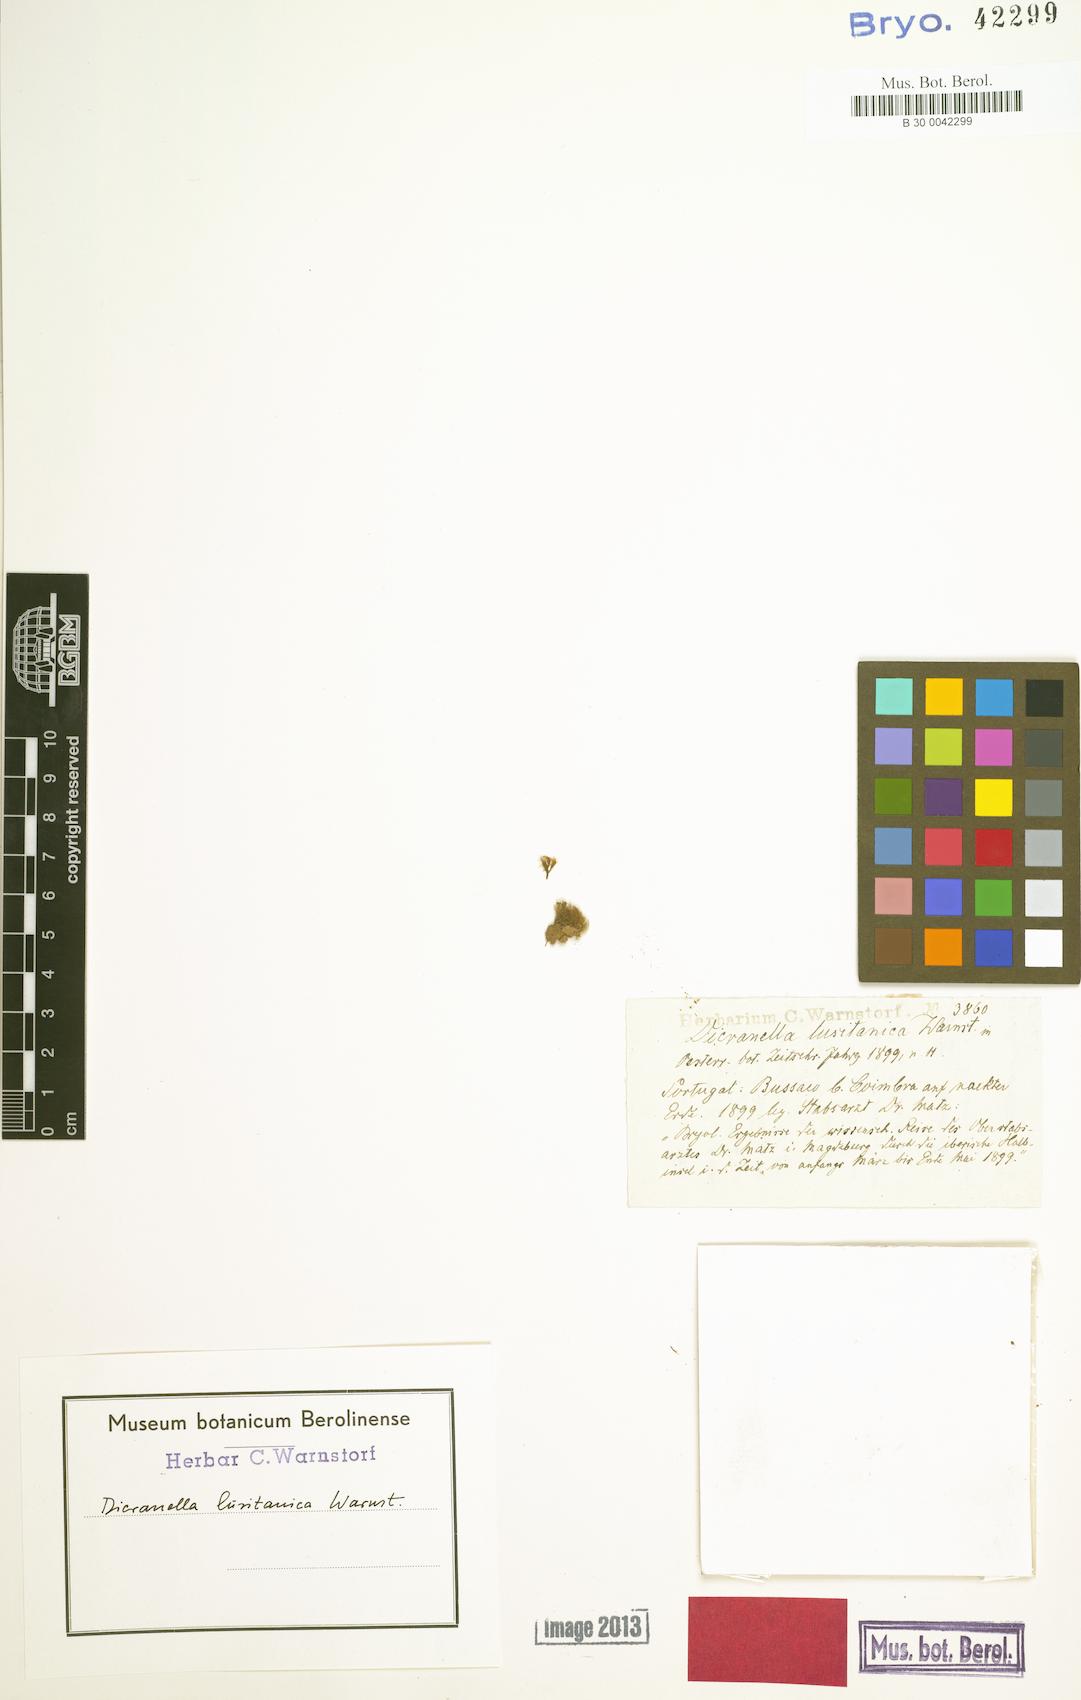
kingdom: Plantae
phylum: Bryophyta
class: Bryopsida
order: Dicranales
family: Dicranellaceae
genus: Dicranella
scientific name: Dicranella heteromalla
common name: Silky forklet moss
